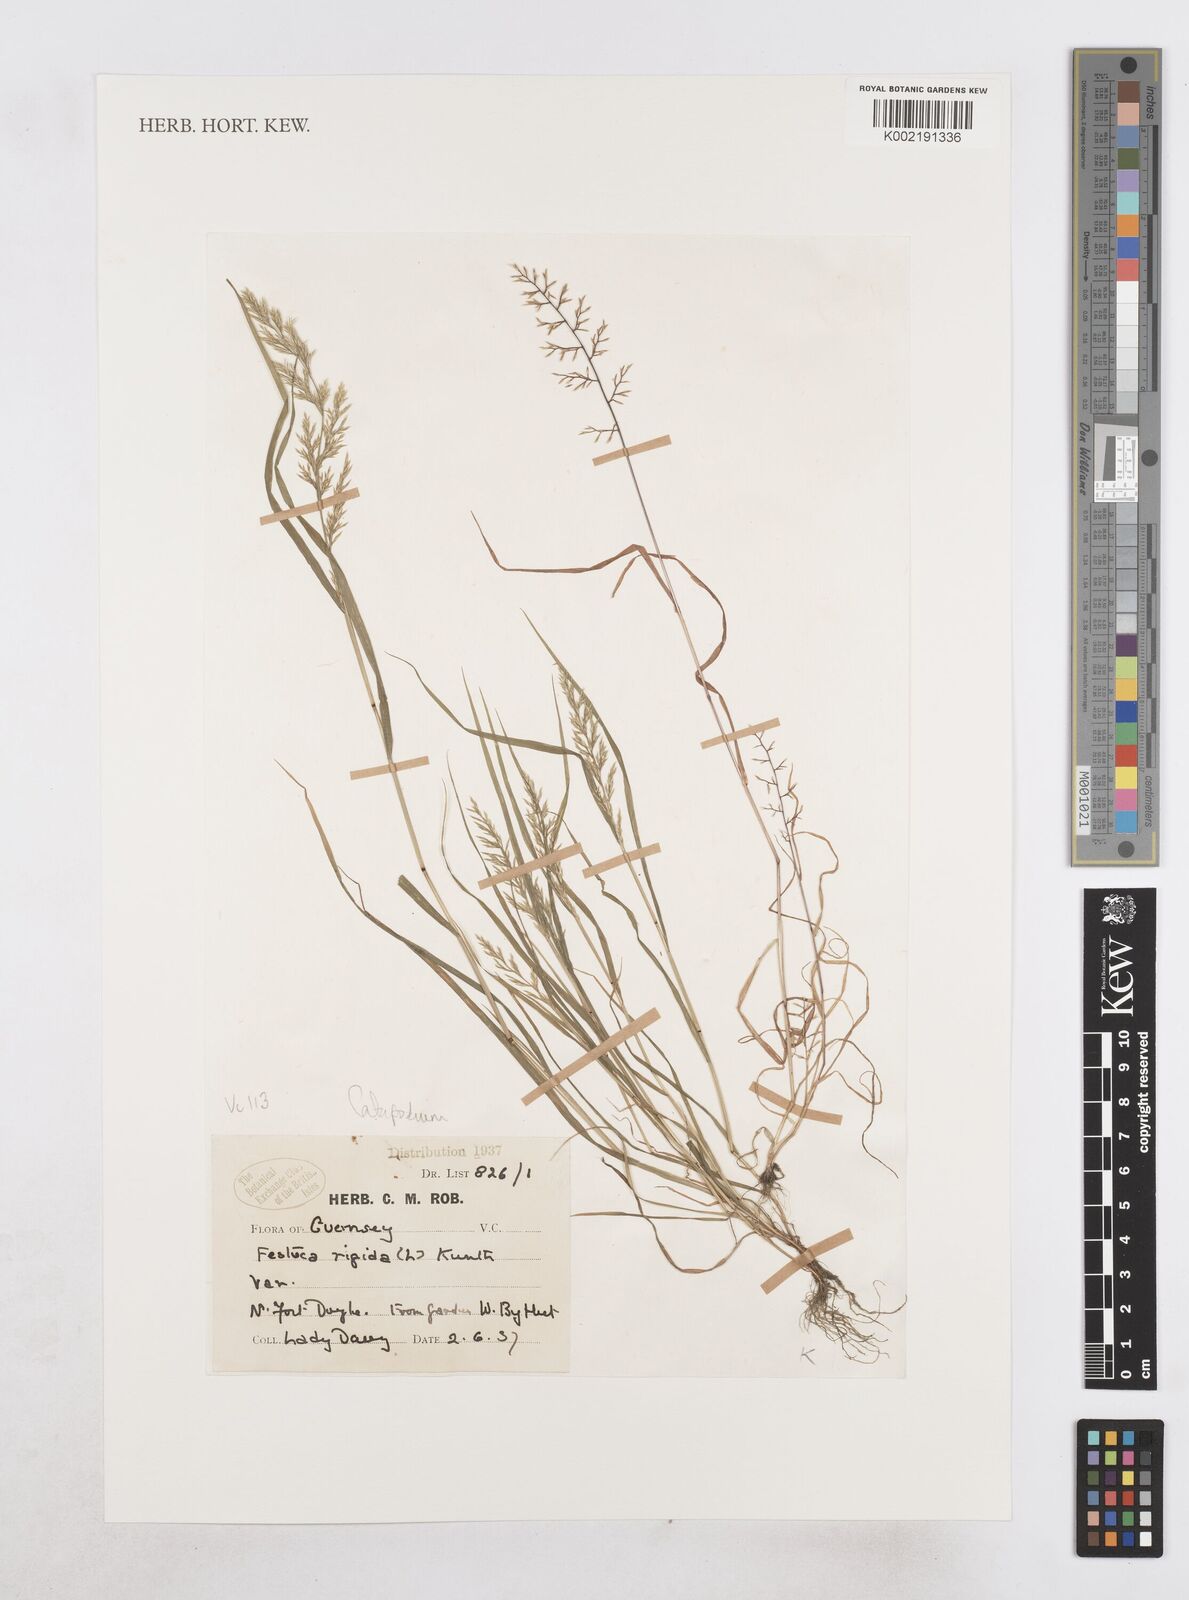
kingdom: Plantae
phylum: Tracheophyta
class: Liliopsida
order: Poales
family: Poaceae
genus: Catapodium
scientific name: Catapodium rigidum
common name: Fern-grass
